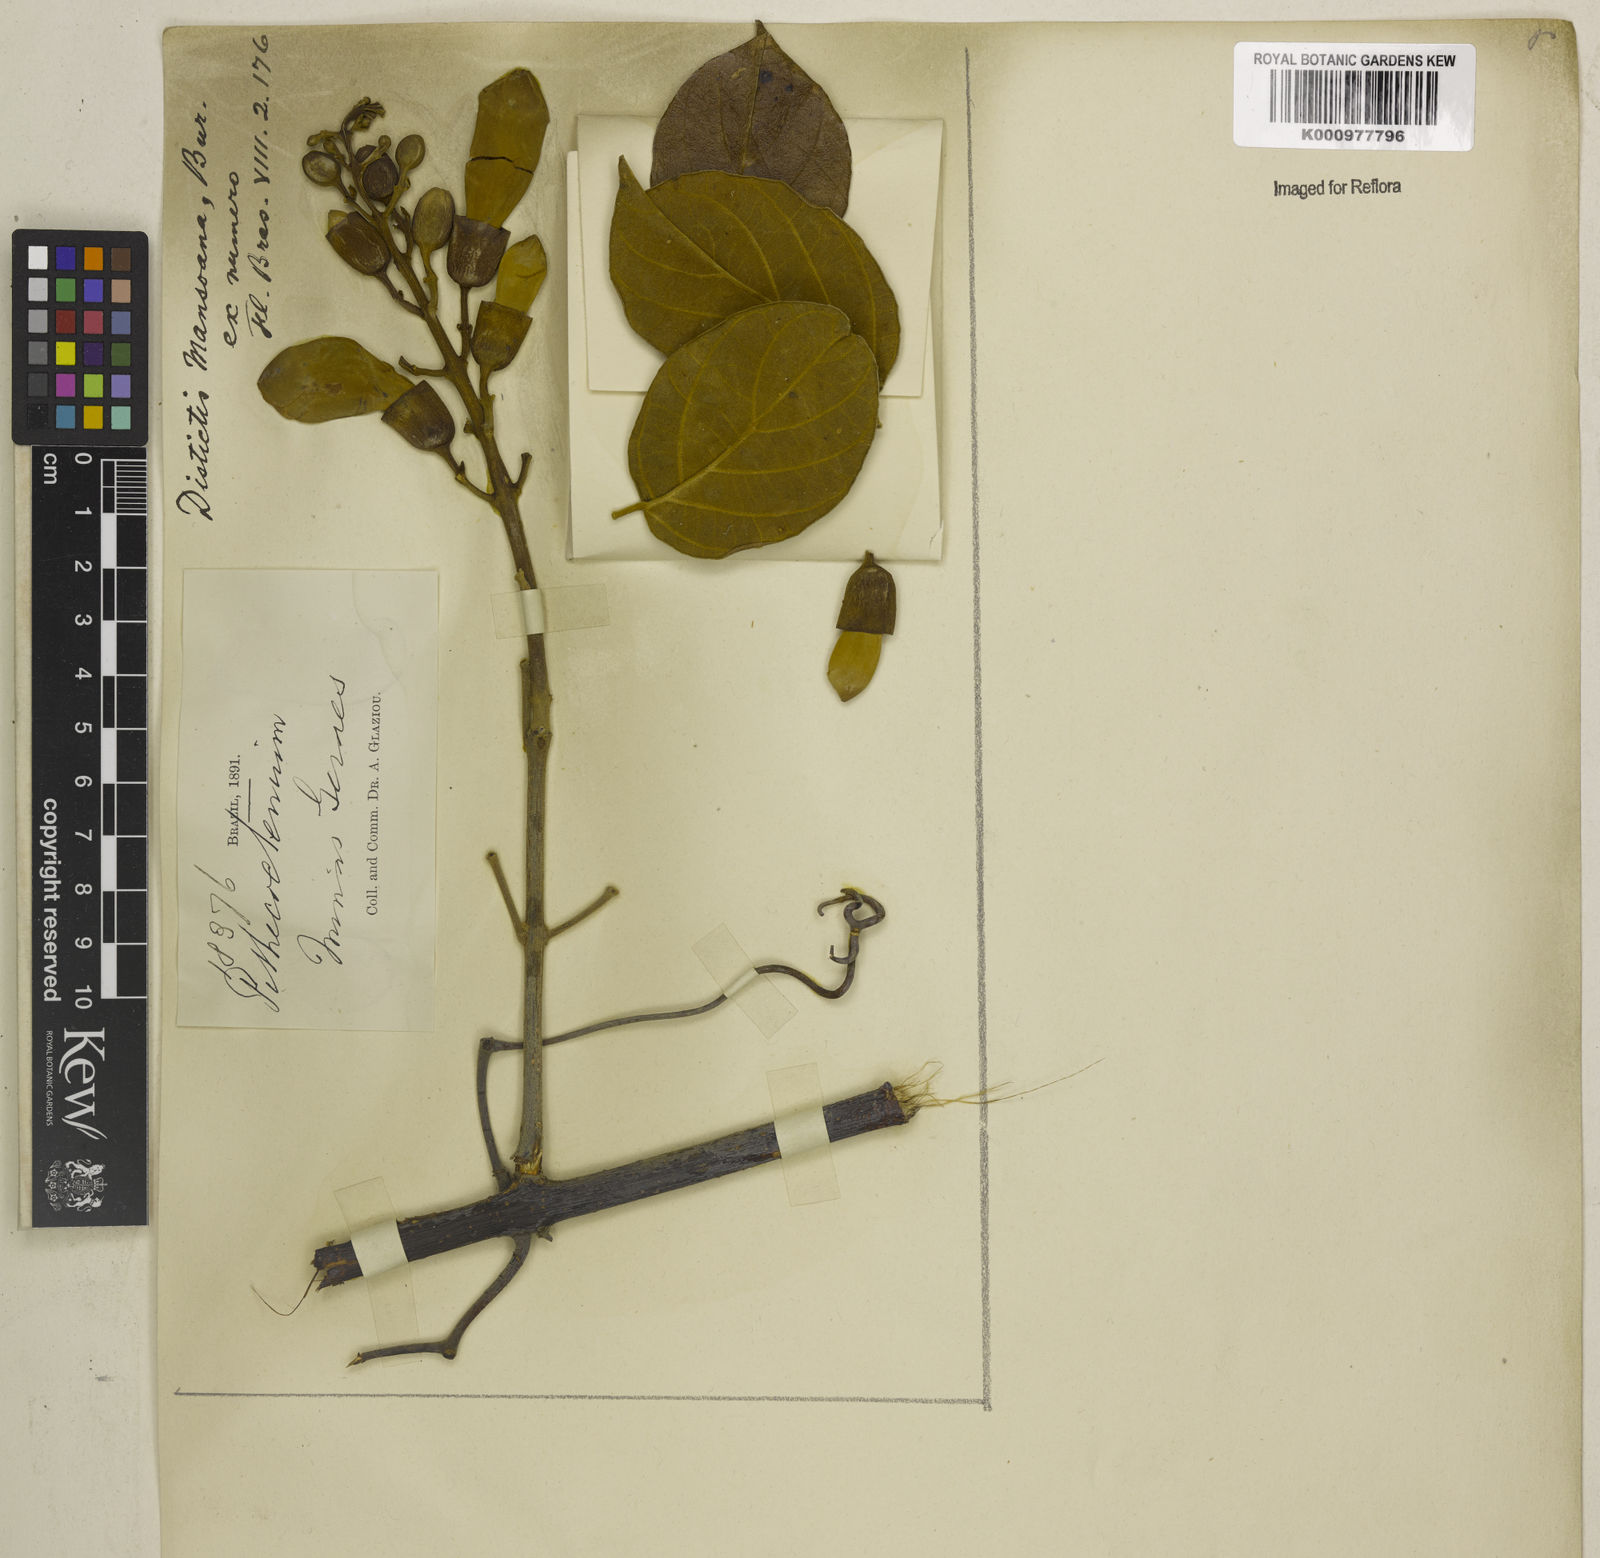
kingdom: Plantae
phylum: Tracheophyta
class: Magnoliopsida
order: Lamiales
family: Bignoniaceae
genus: Amphilophium
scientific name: Amphilophium mansoanum
